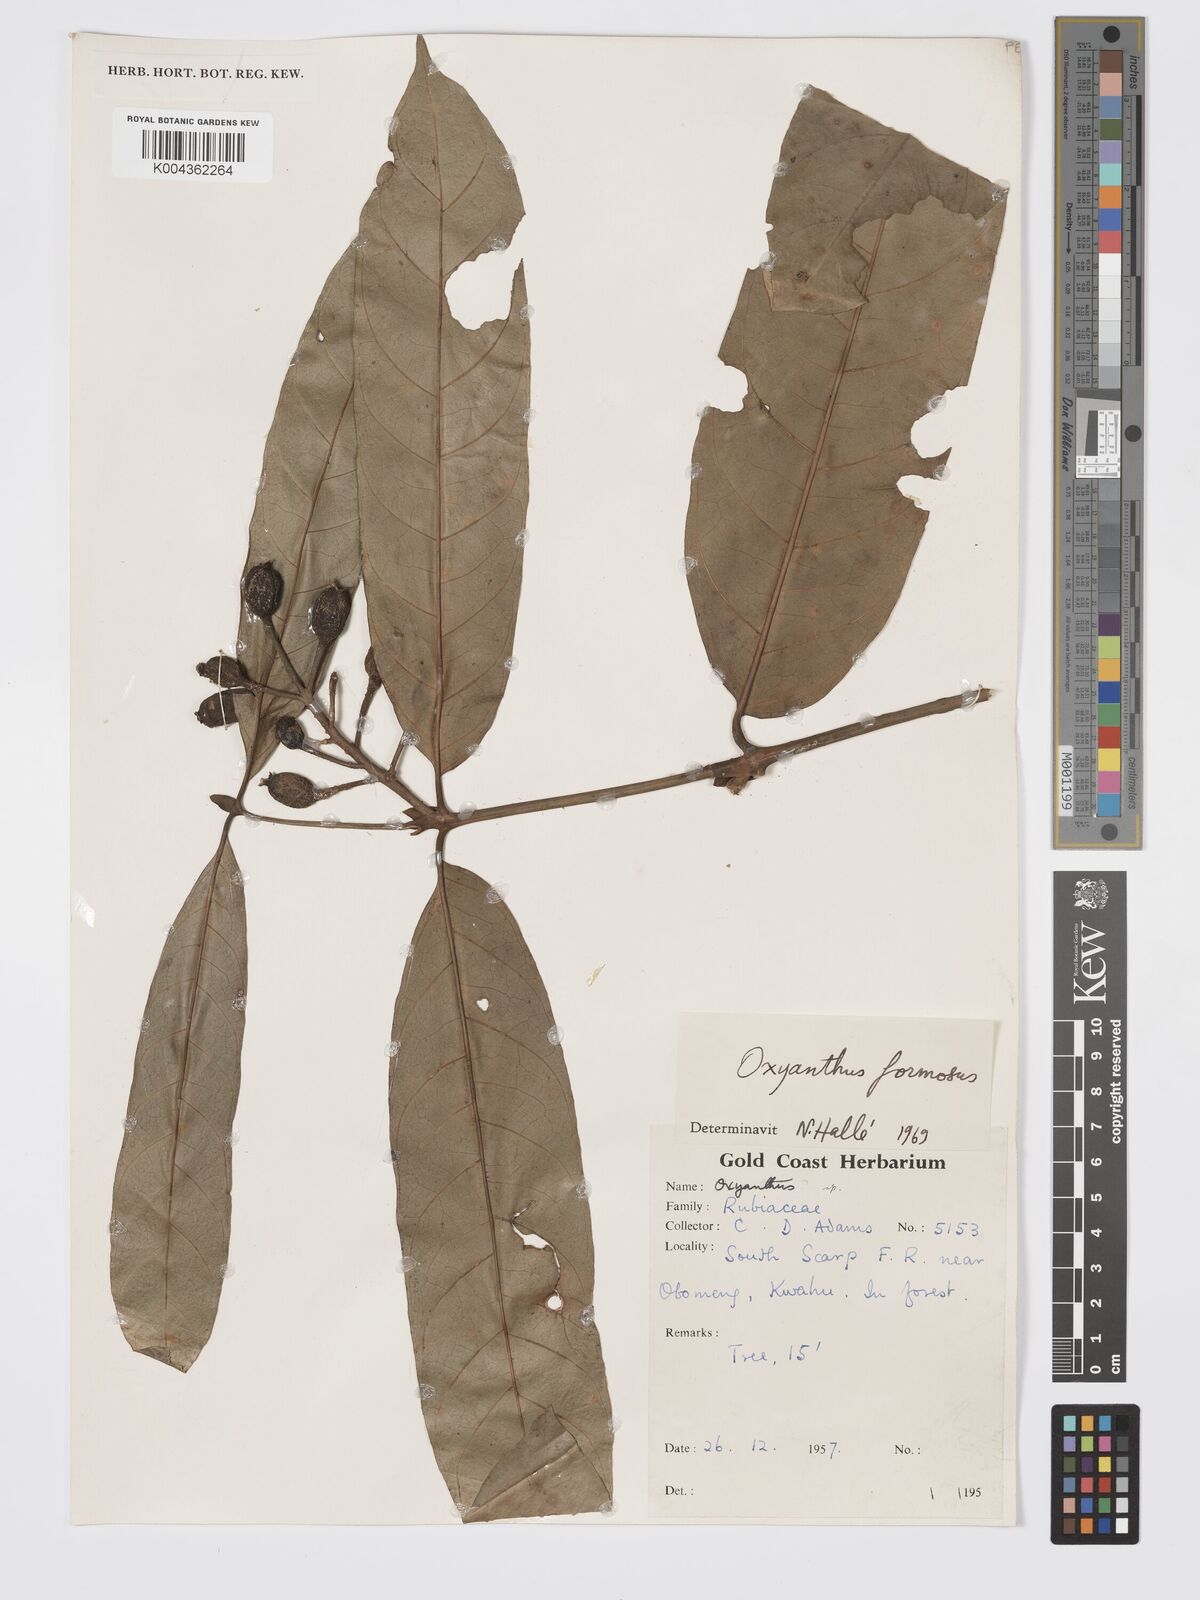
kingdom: Plantae
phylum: Tracheophyta
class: Magnoliopsida
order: Gentianales
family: Rubiaceae
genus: Oxyanthus
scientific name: Oxyanthus formosus
